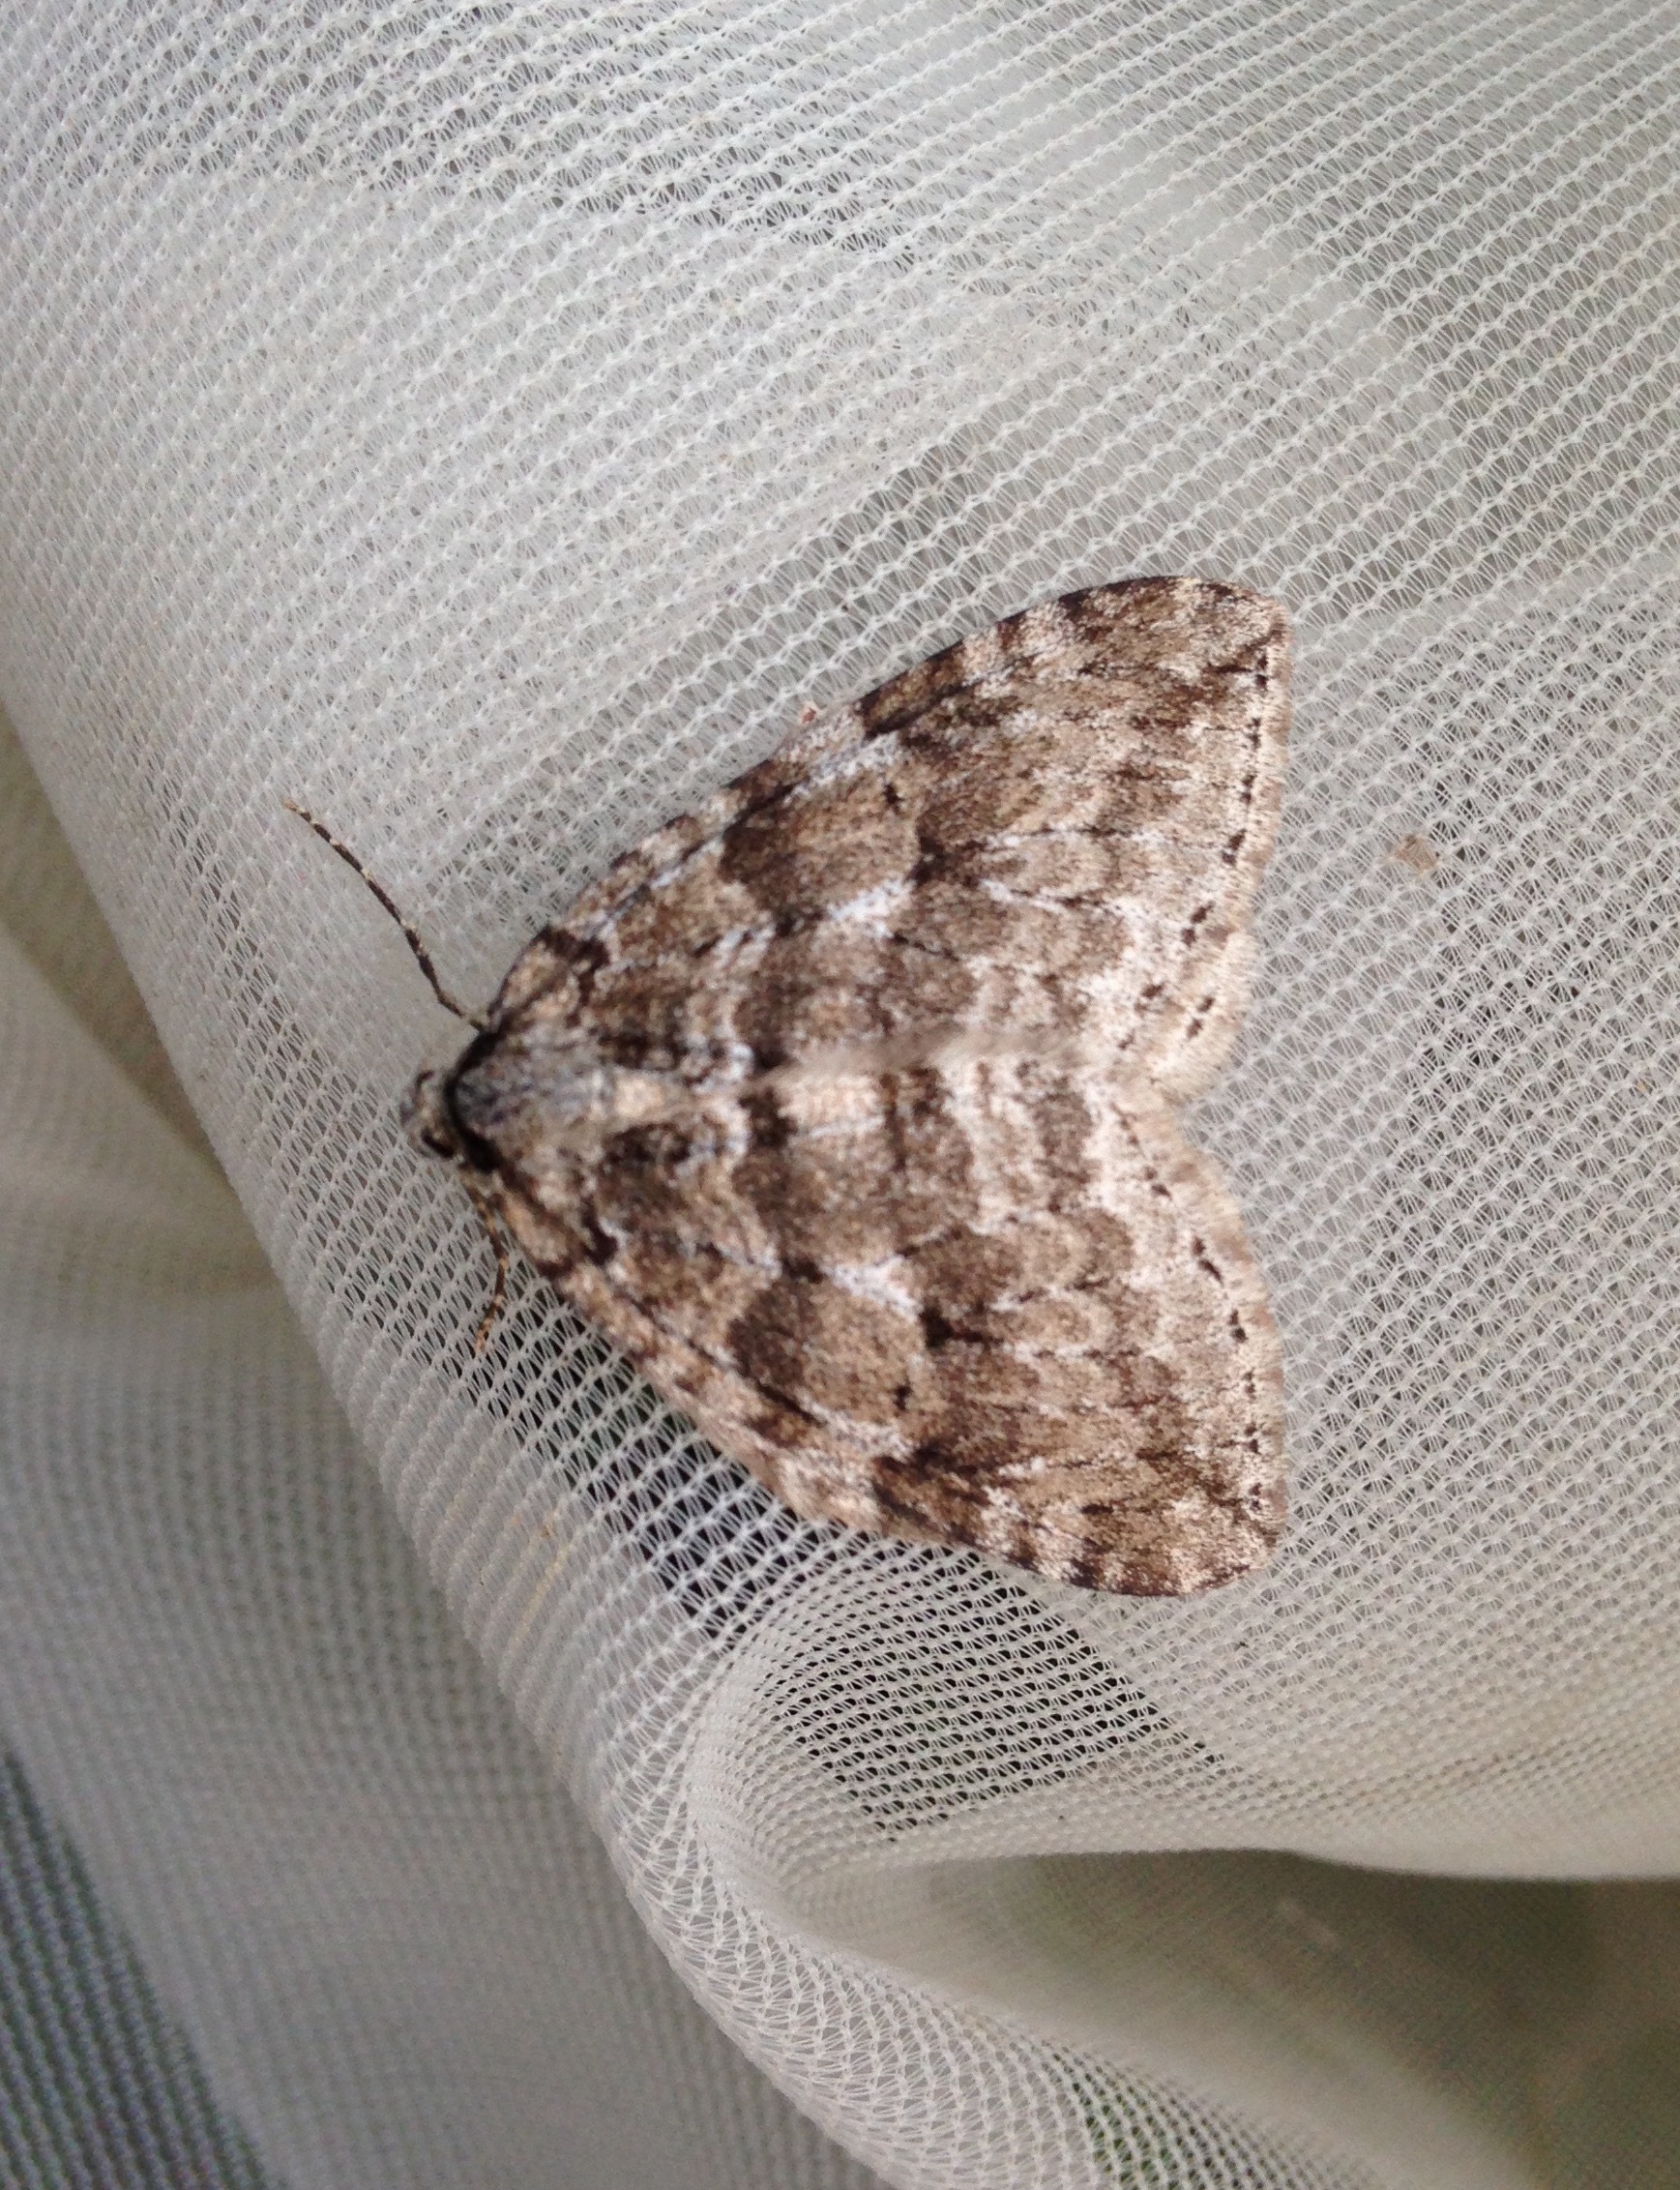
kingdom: Animalia
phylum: Arthropoda
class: Insecta
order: Lepidoptera
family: Geometridae
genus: Epirrita
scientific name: Epirrita autumnata
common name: Autumnal moth
